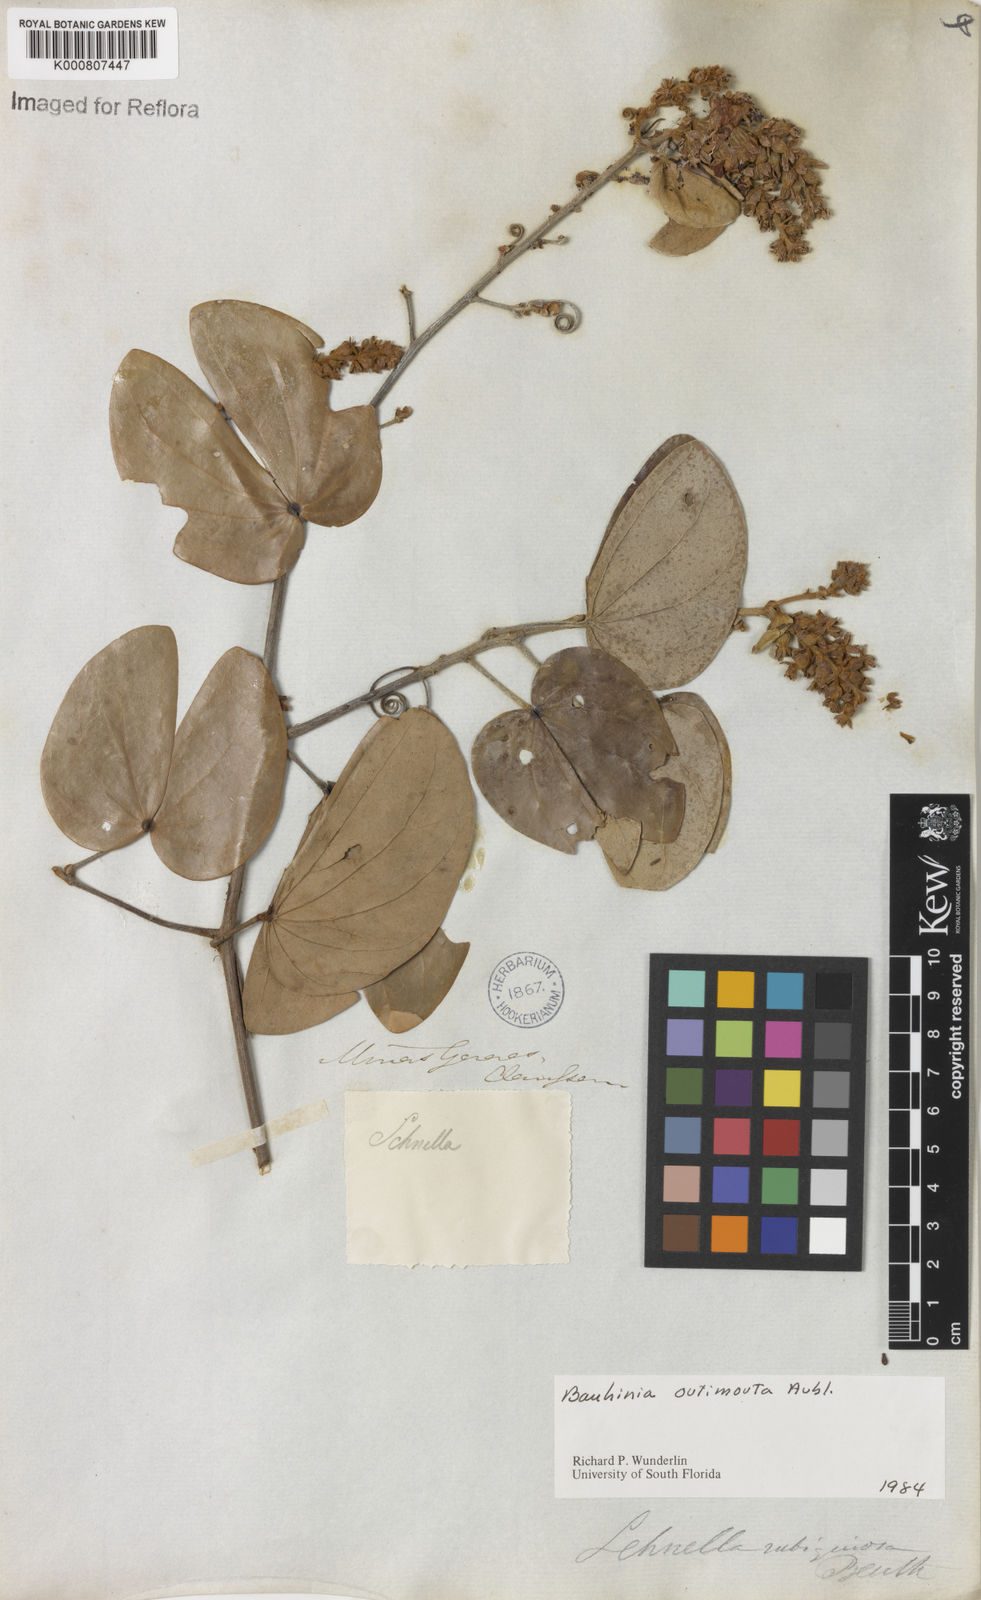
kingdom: Plantae
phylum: Tracheophyta
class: Magnoliopsida
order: Fabales
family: Fabaceae
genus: Schnella
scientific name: Schnella outimouta
